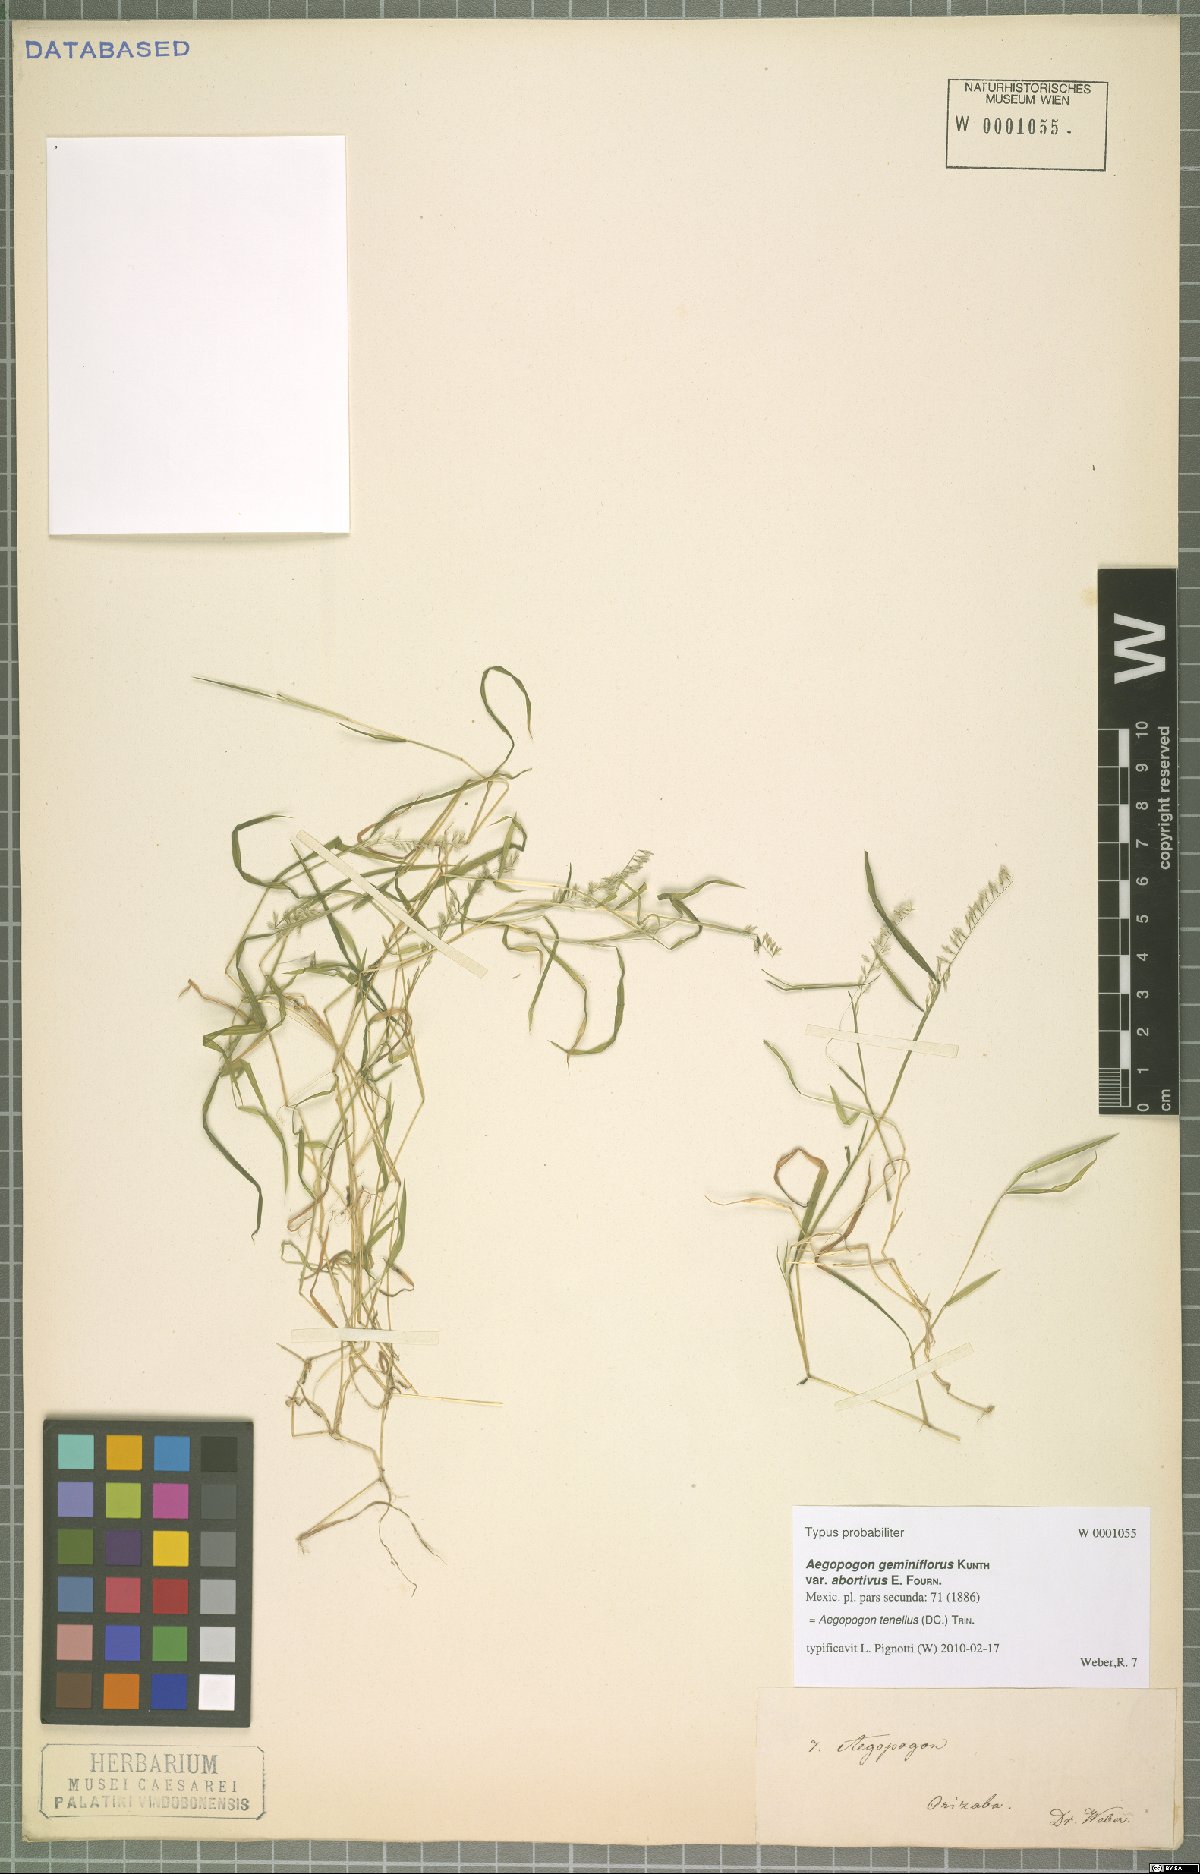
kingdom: Plantae
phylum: Tracheophyta
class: Liliopsida
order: Poales
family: Poaceae
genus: Muhlenbergia
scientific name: Muhlenbergia uniseta
